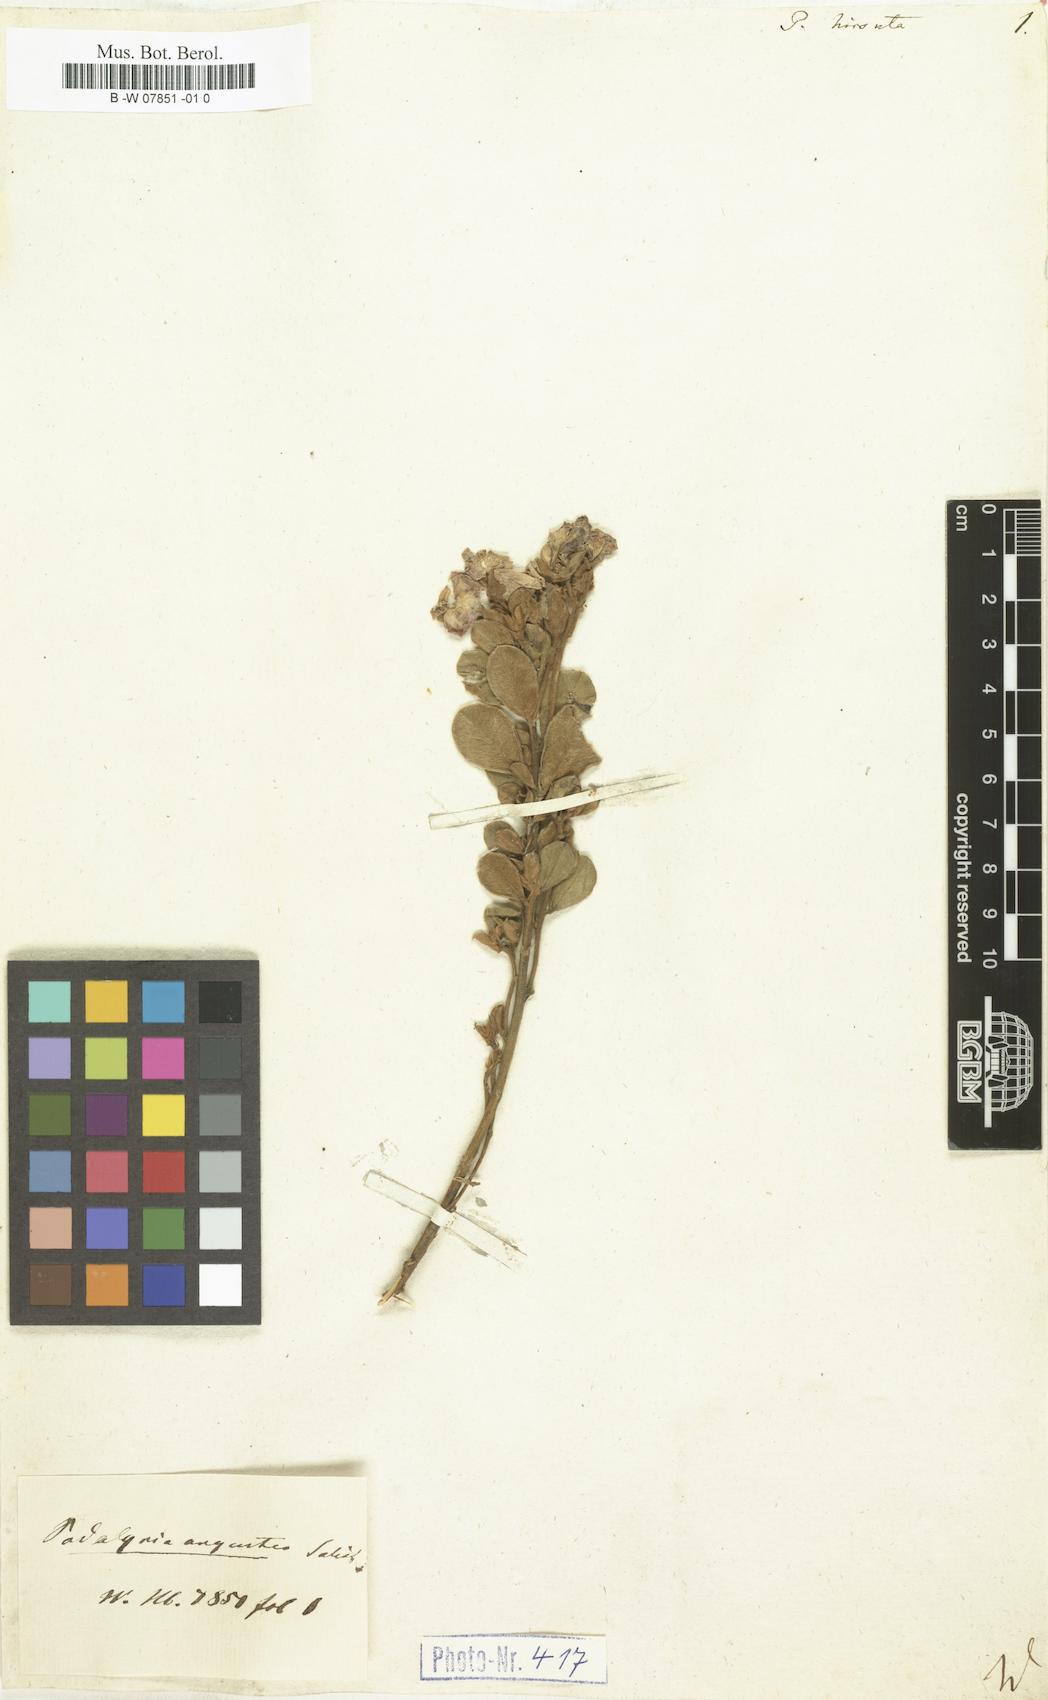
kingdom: Plantae
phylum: Tracheophyta
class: Magnoliopsida
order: Fabales
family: Fabaceae
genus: Podalyria
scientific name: Podalyria hirsuta
